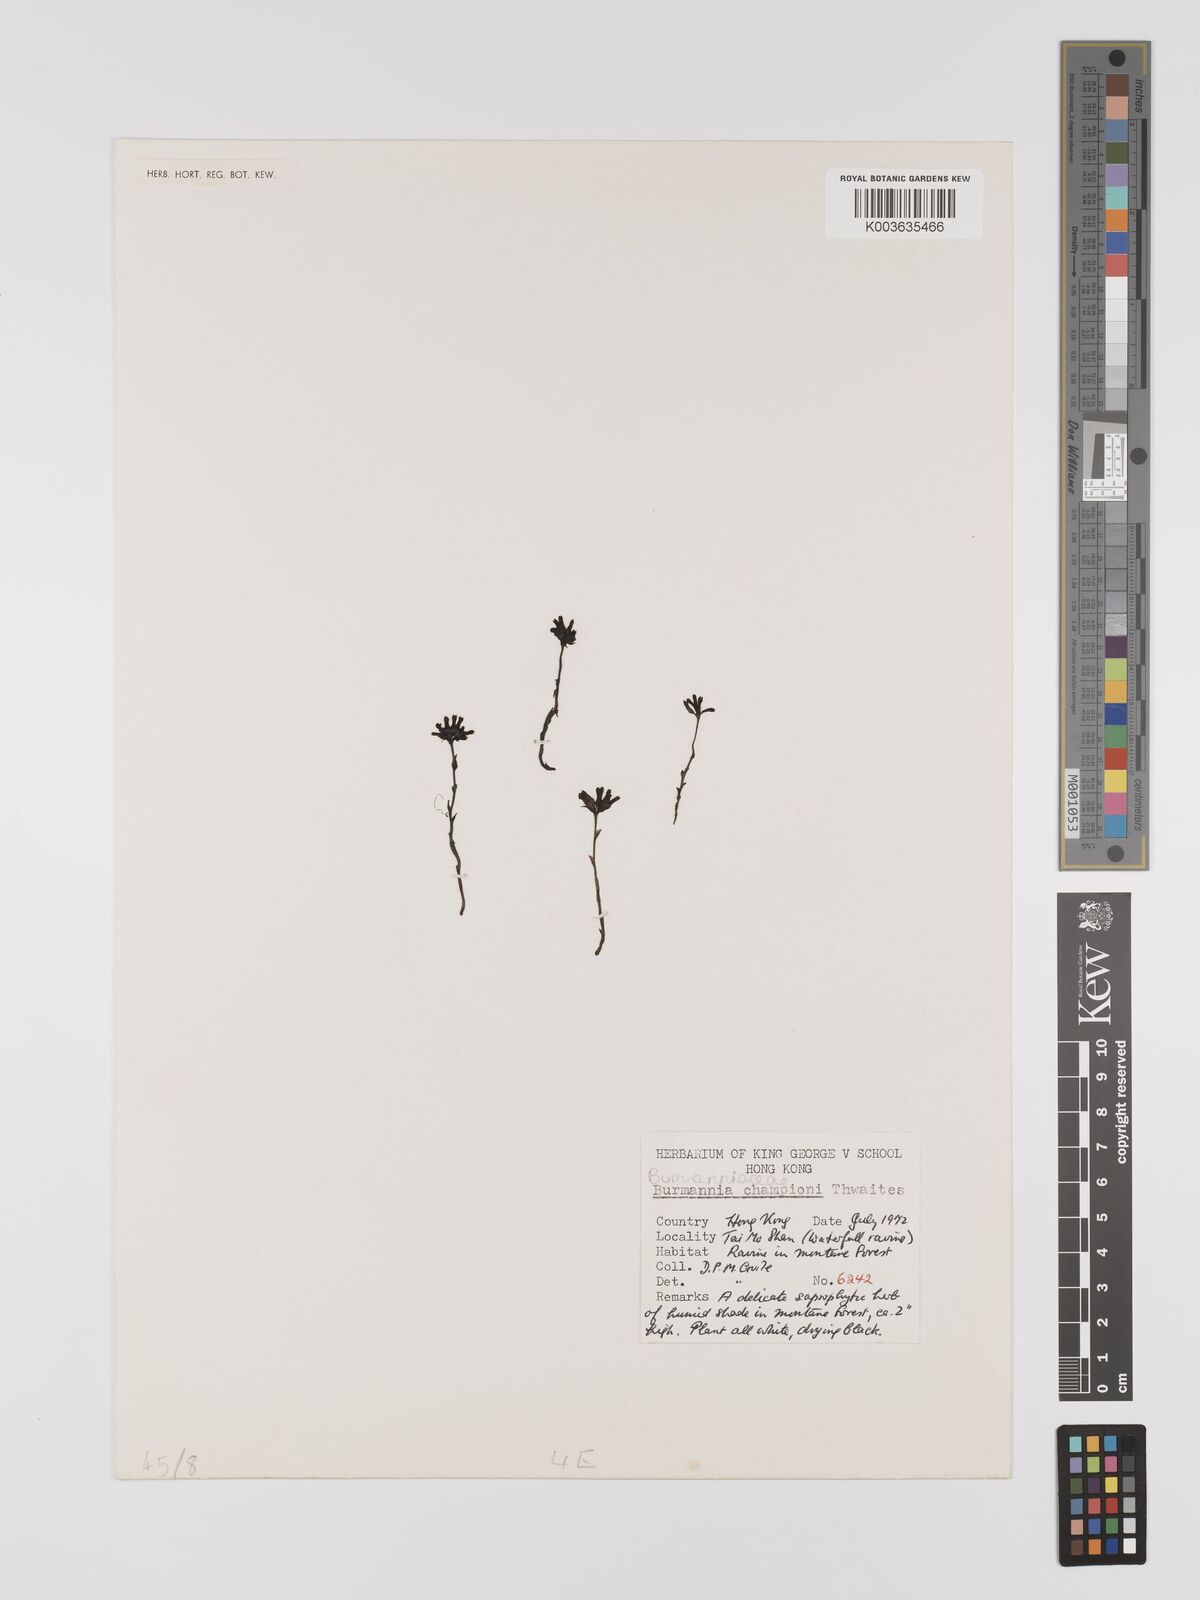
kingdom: Plantae
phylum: Tracheophyta
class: Liliopsida
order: Dioscoreales
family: Burmanniaceae
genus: Burmannia
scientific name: Burmannia championii
